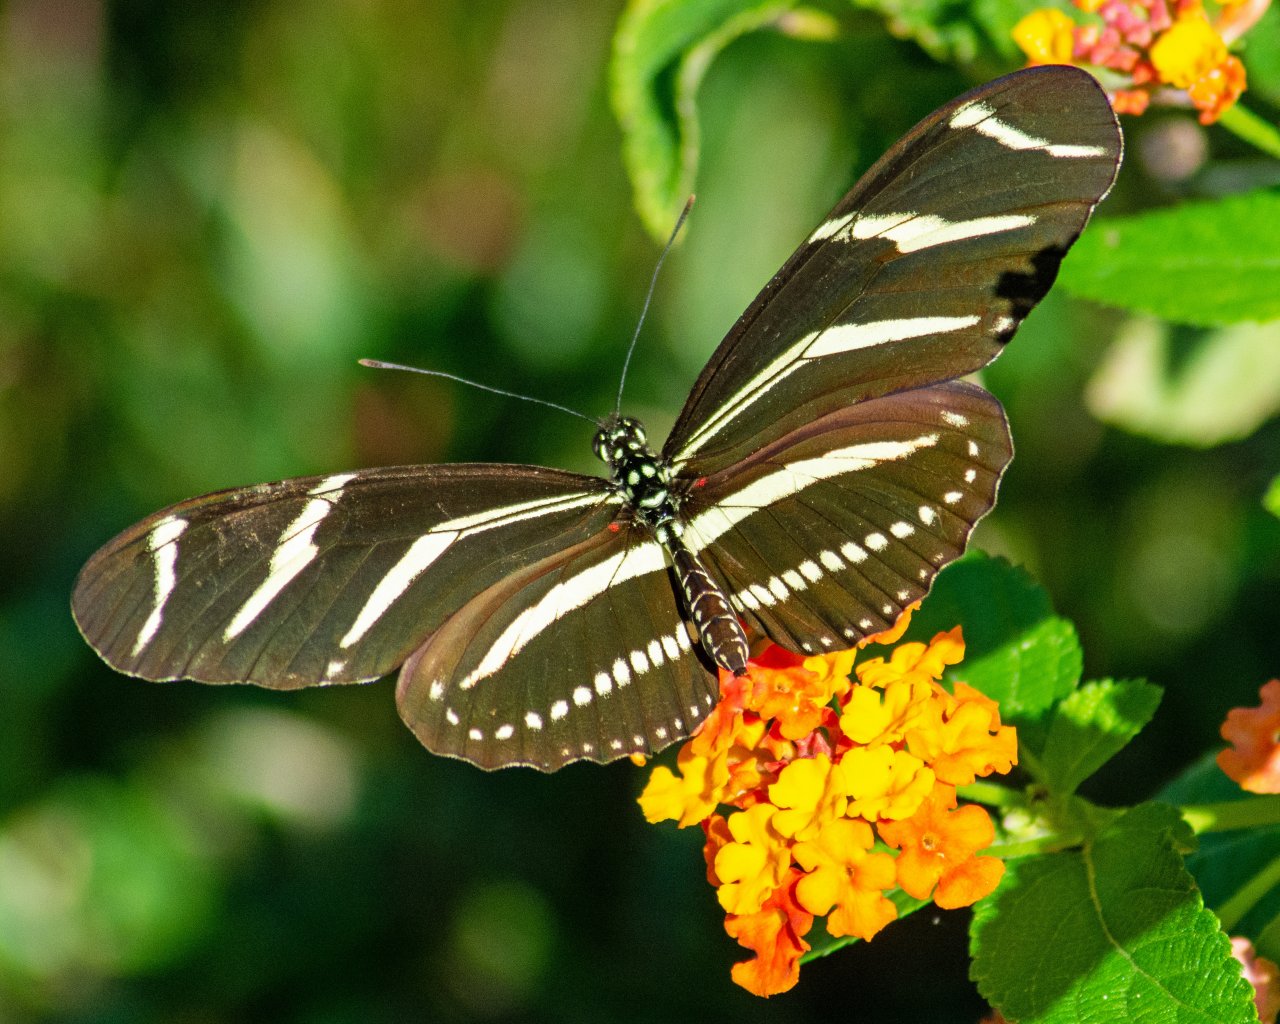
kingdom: Animalia
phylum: Arthropoda
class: Insecta
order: Lepidoptera
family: Nymphalidae
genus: Heliconius
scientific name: Heliconius charithonia
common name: Zebra Longwing
